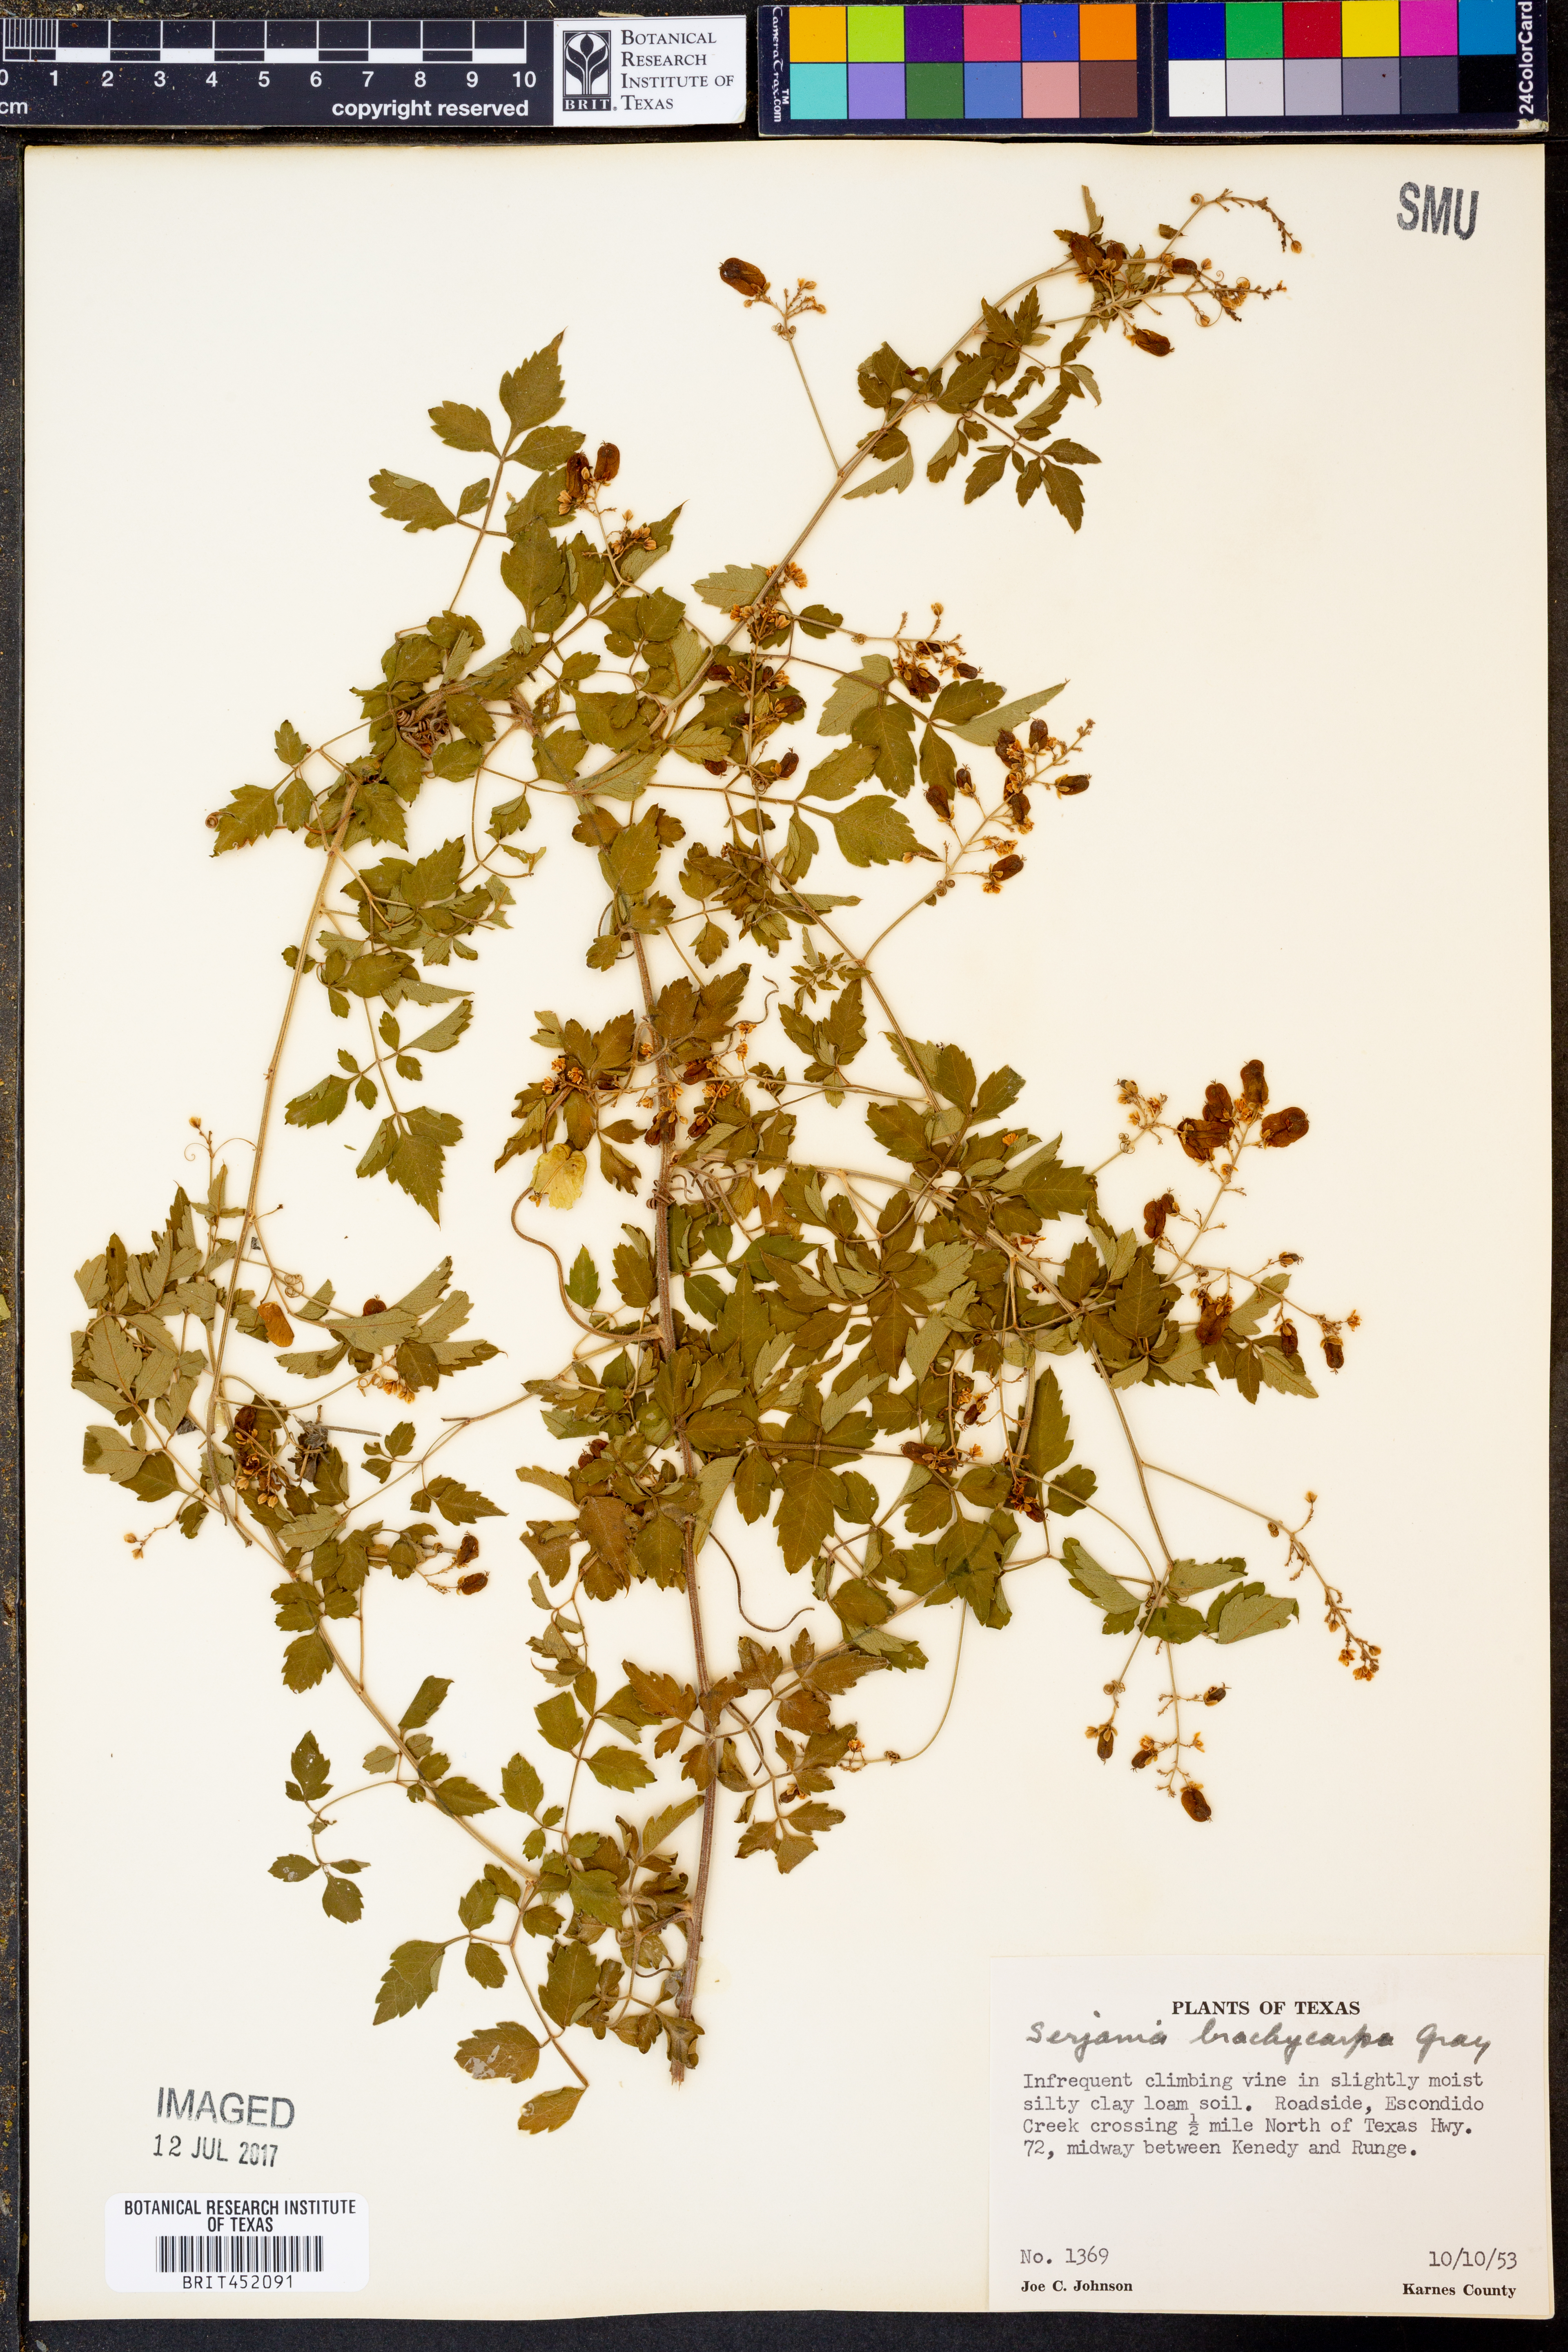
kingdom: Plantae
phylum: Tracheophyta
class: Magnoliopsida
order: Sapindales
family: Sapindaceae
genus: Serjania
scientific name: Serjania brachycarpa
